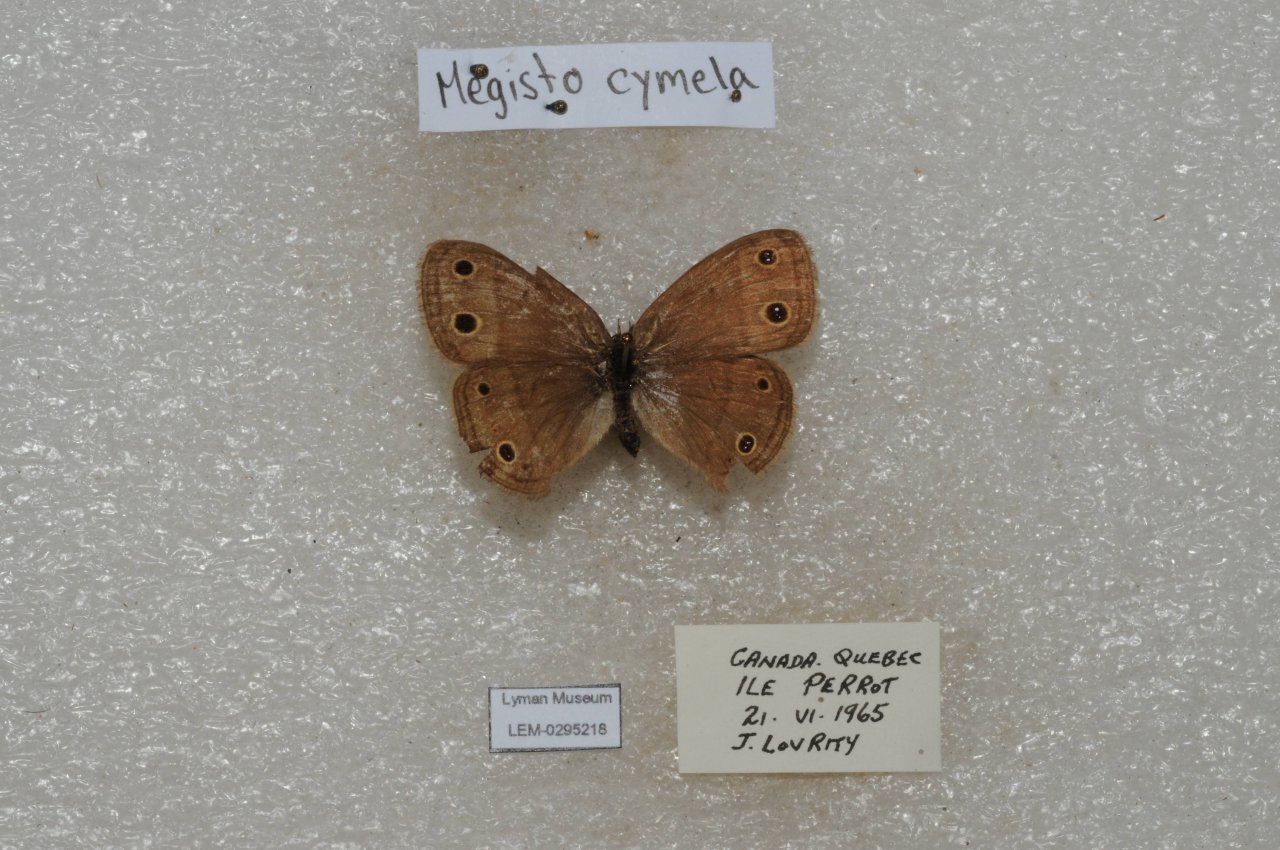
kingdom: Animalia
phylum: Arthropoda
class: Insecta
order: Lepidoptera
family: Nymphalidae
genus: Euptychia
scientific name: Euptychia cymela
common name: Little Wood Satyr
